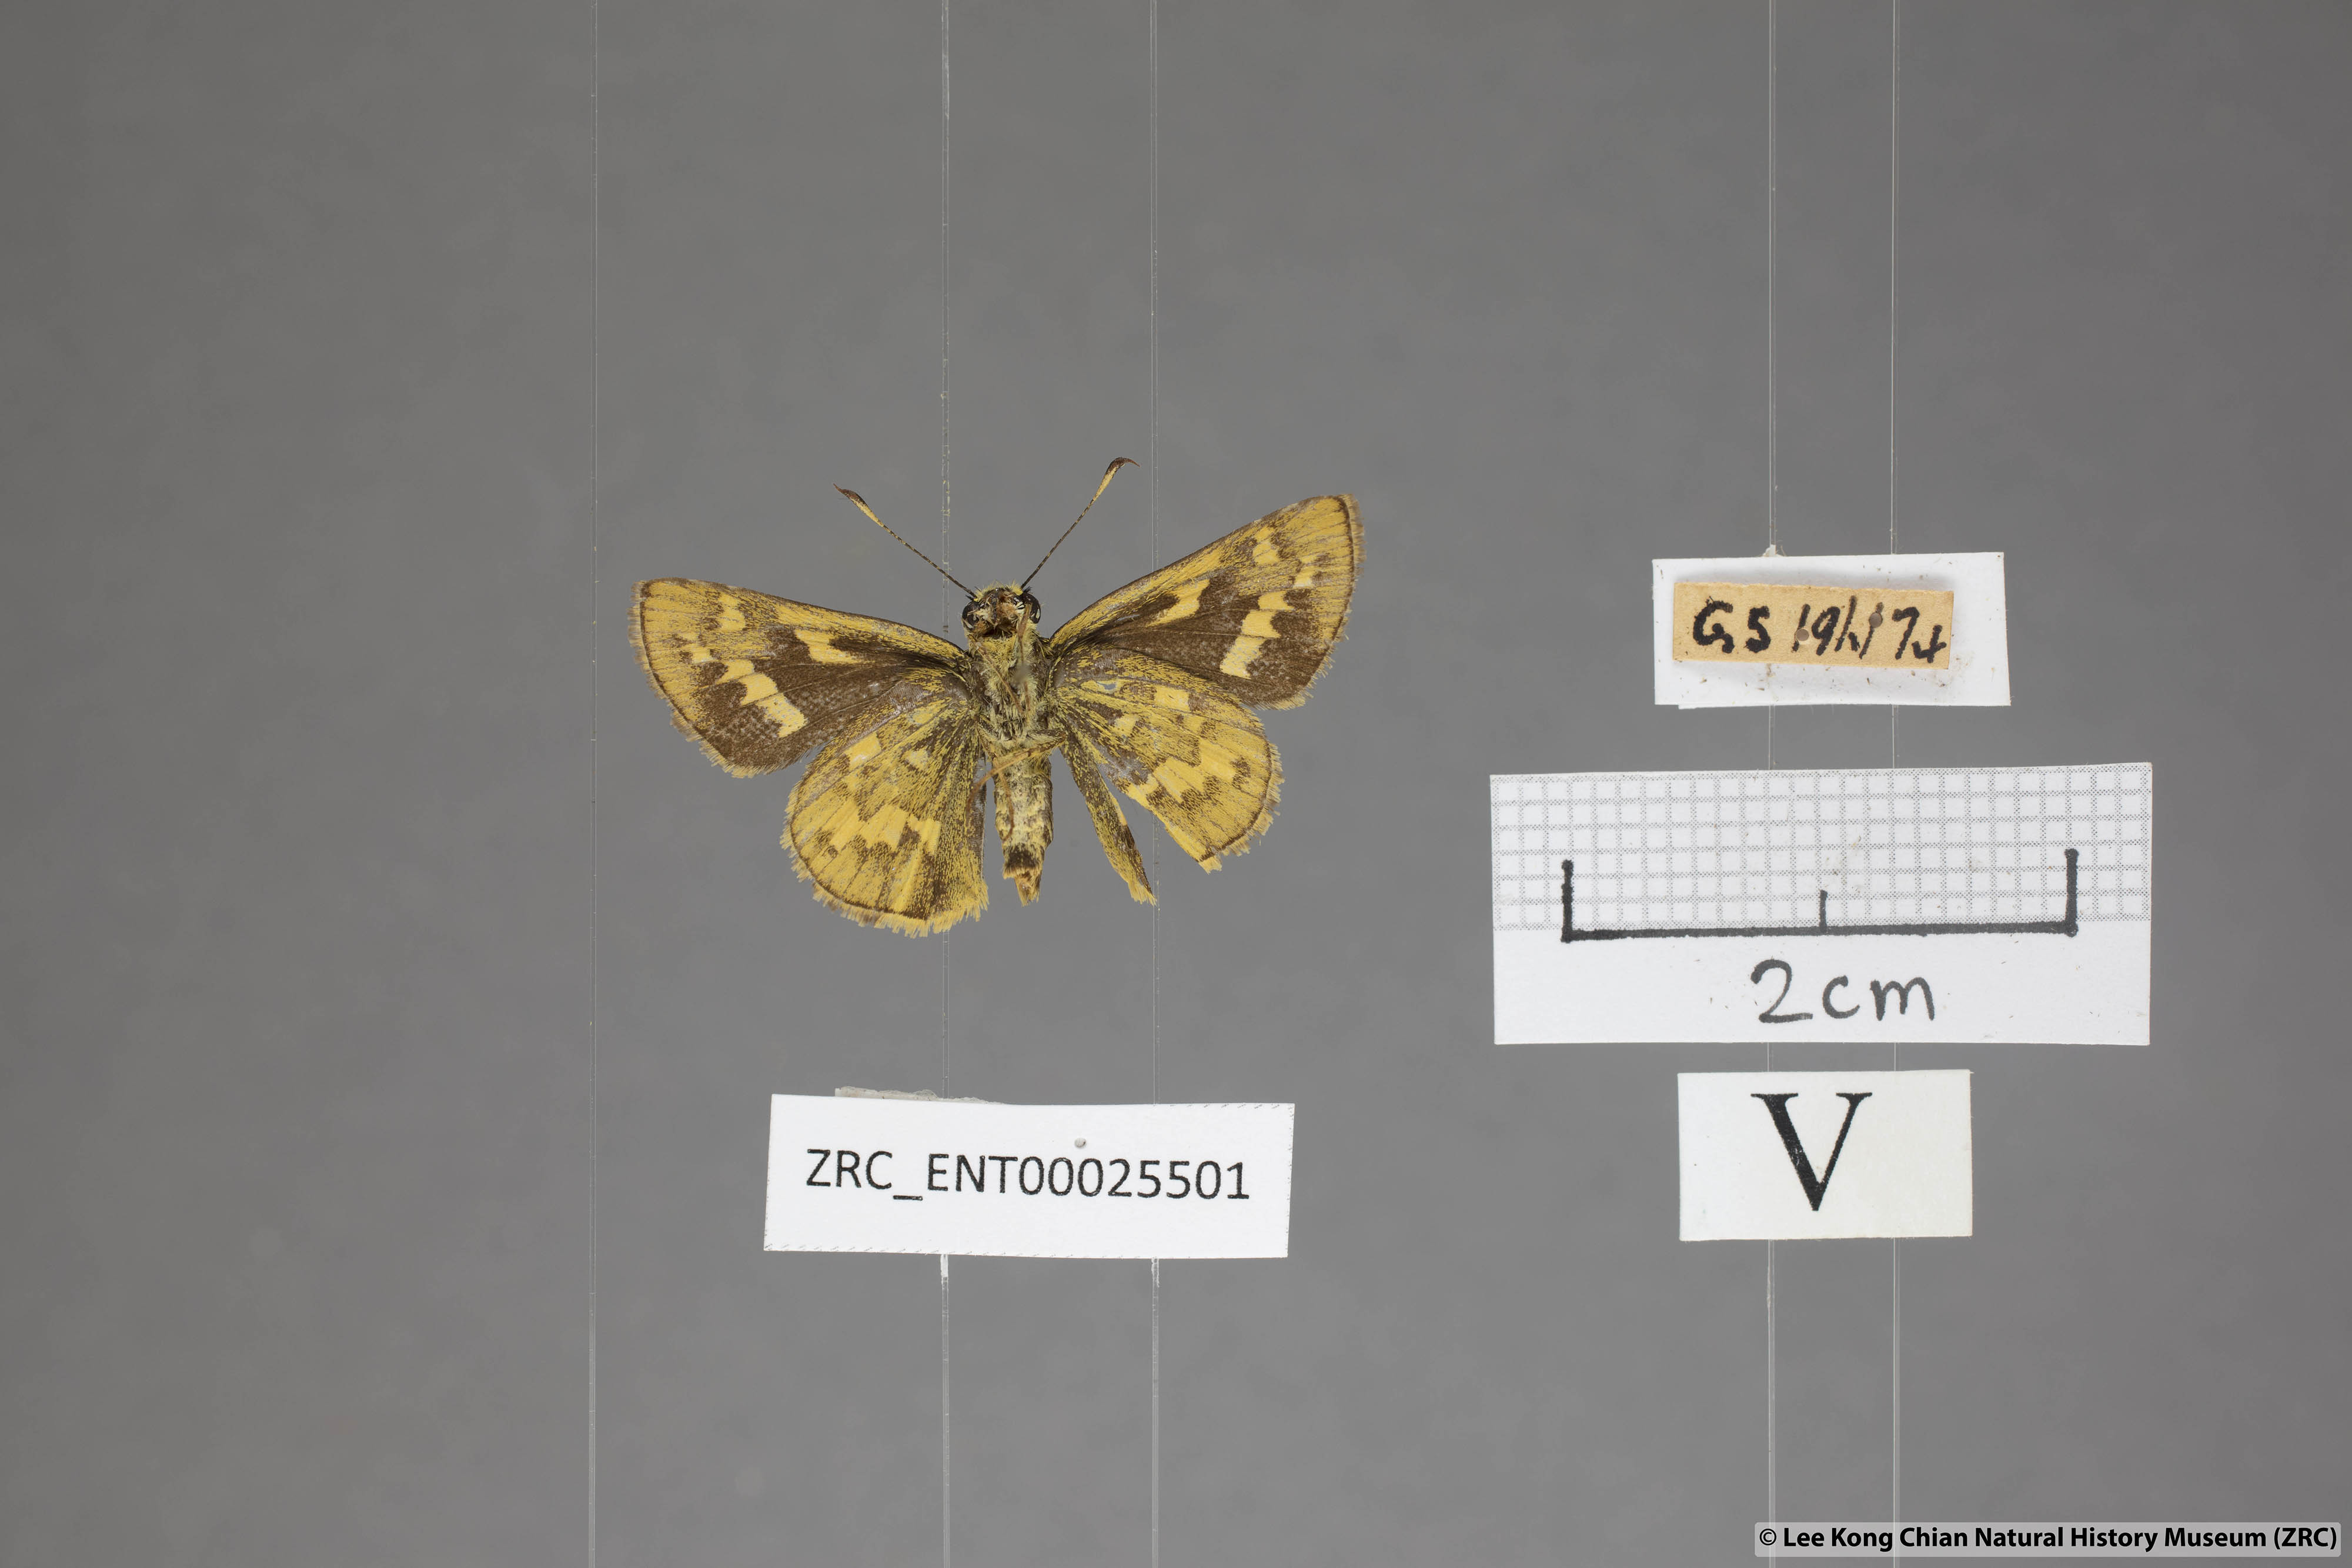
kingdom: Animalia
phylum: Arthropoda
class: Insecta
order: Lepidoptera
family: Hesperiidae
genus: Potanthus
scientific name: Potanthus trachala
